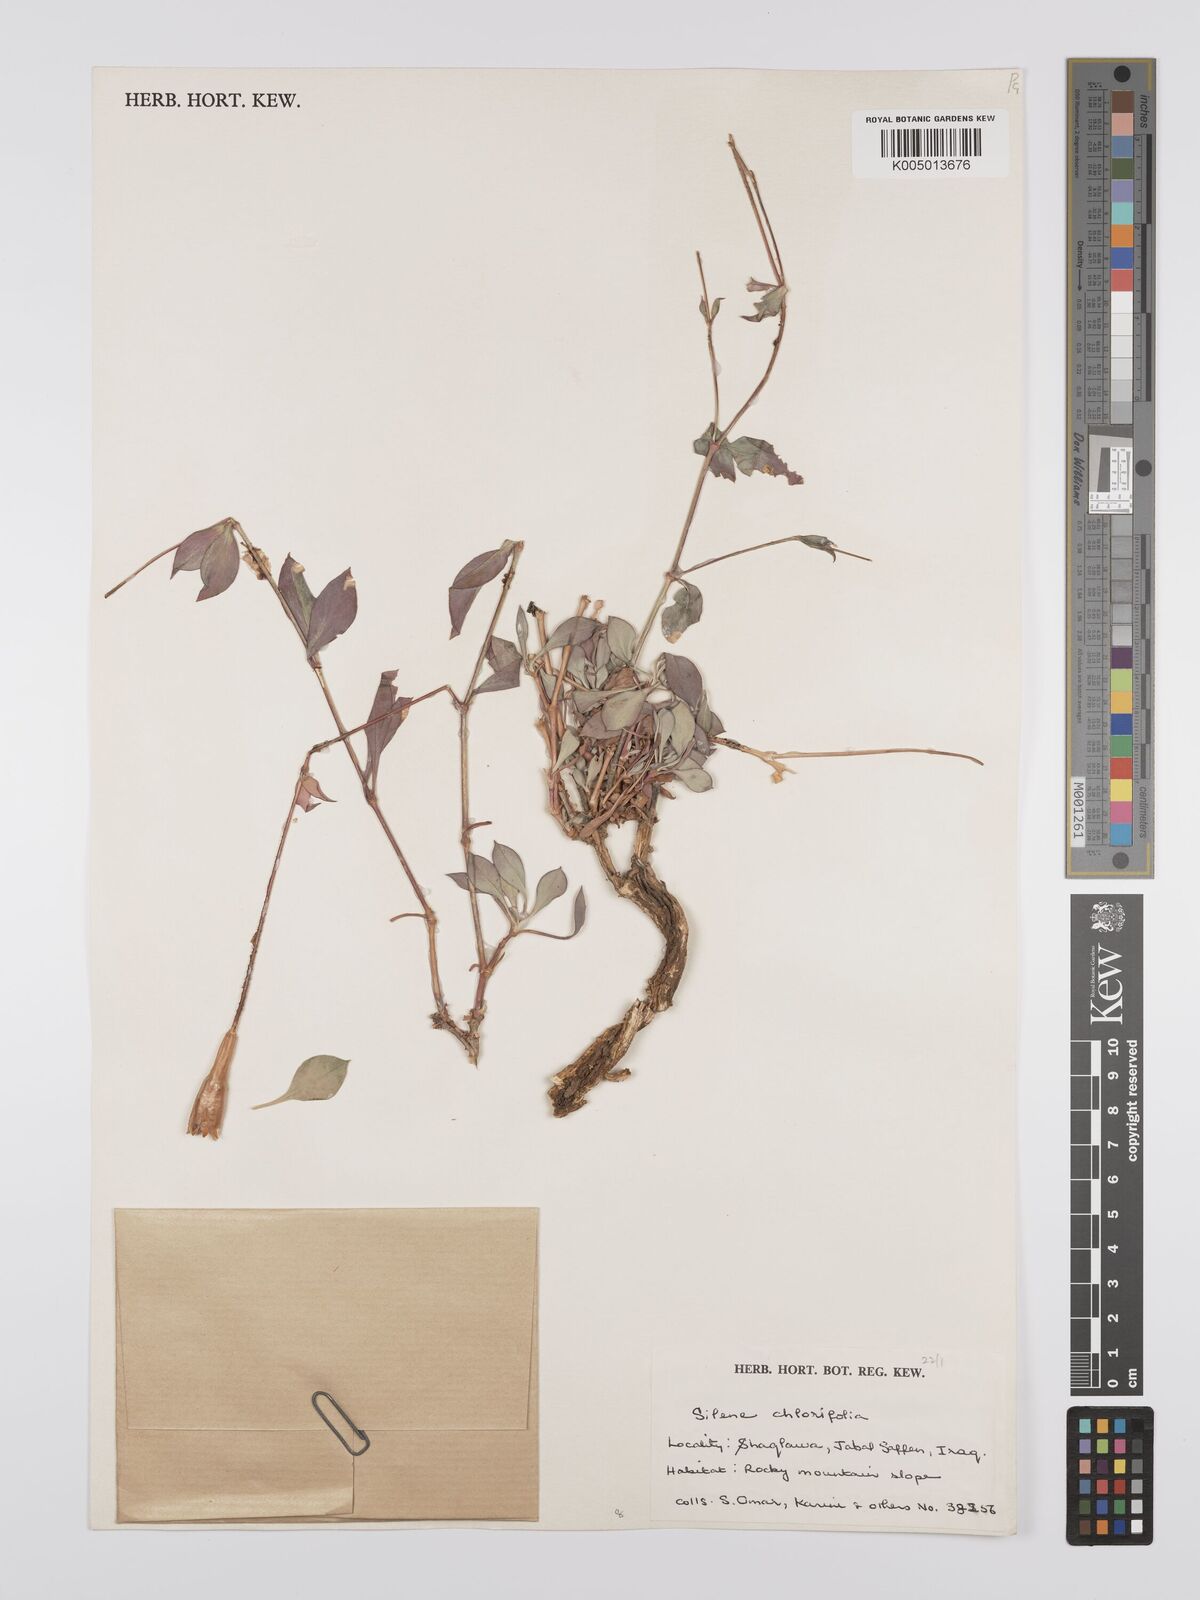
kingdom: Plantae
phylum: Tracheophyta
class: Magnoliopsida
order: Caryophyllales
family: Caryophyllaceae
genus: Silene
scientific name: Silene chlorifolia
